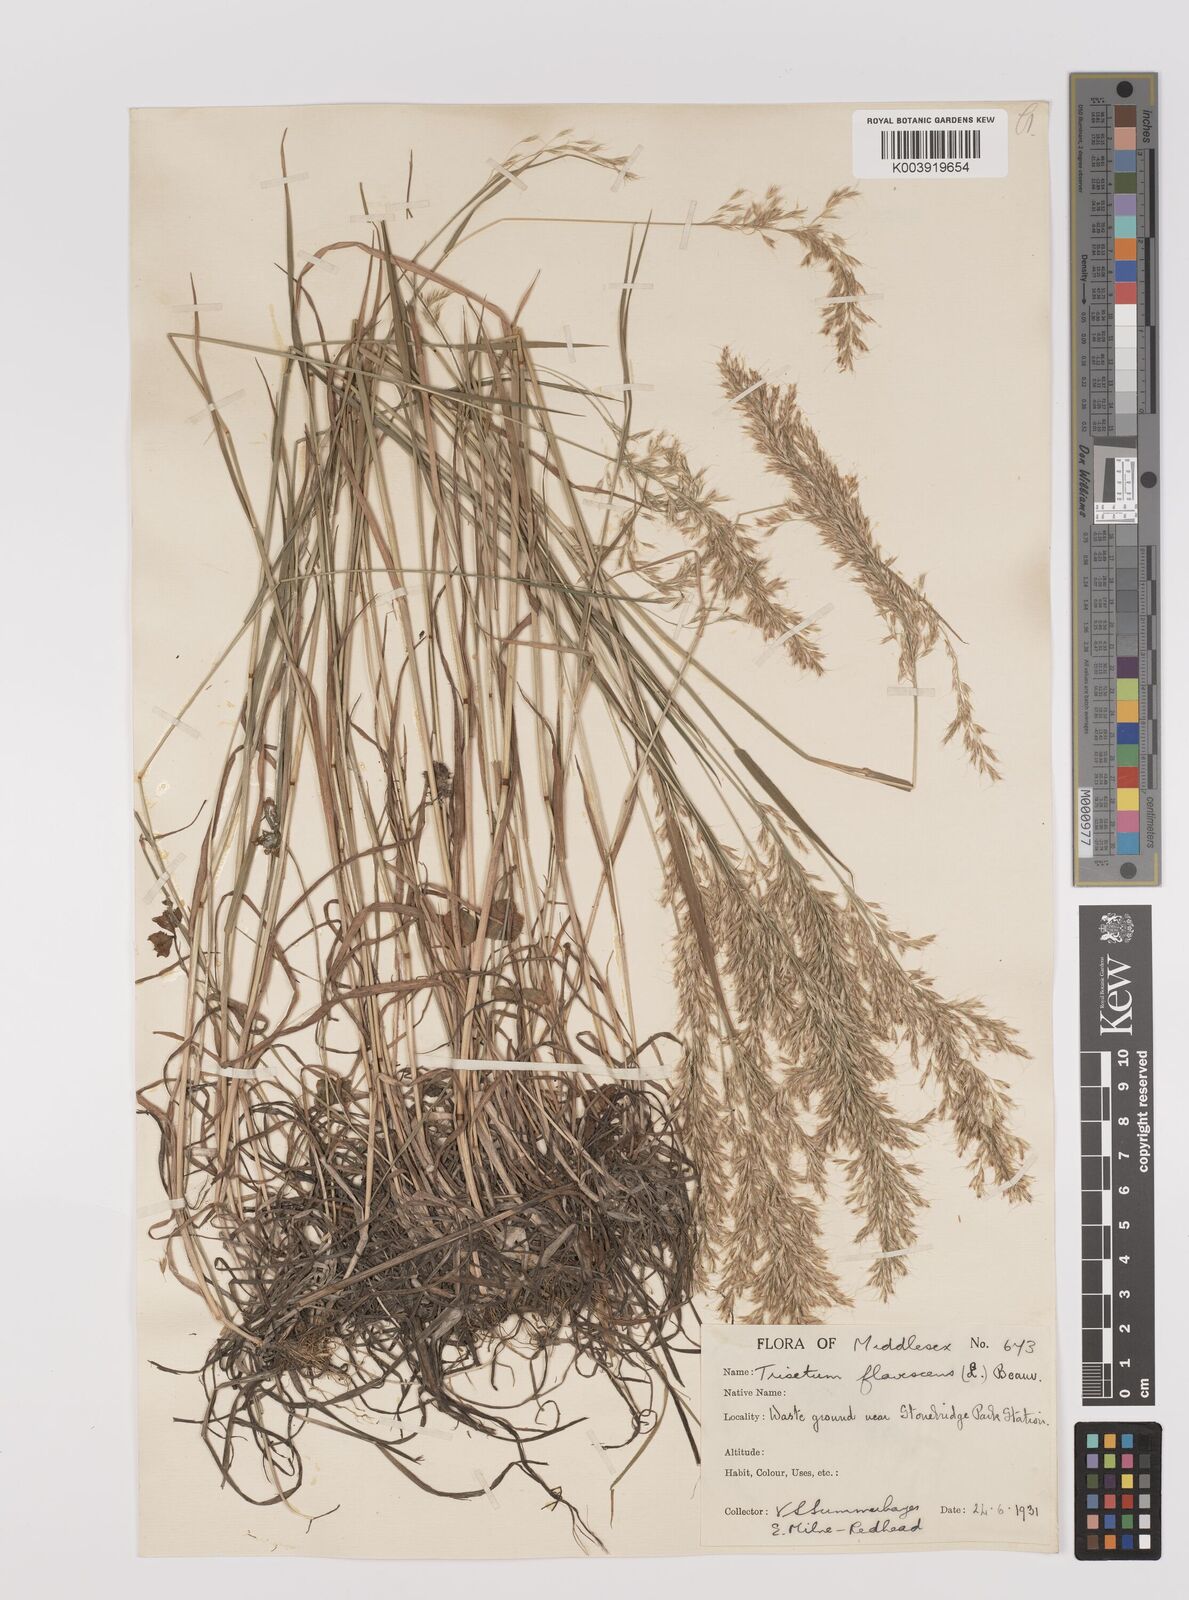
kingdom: Plantae
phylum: Tracheophyta
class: Liliopsida
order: Poales
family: Poaceae
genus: Trisetum
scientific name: Trisetum flavescens
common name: Yellow oat-grass
